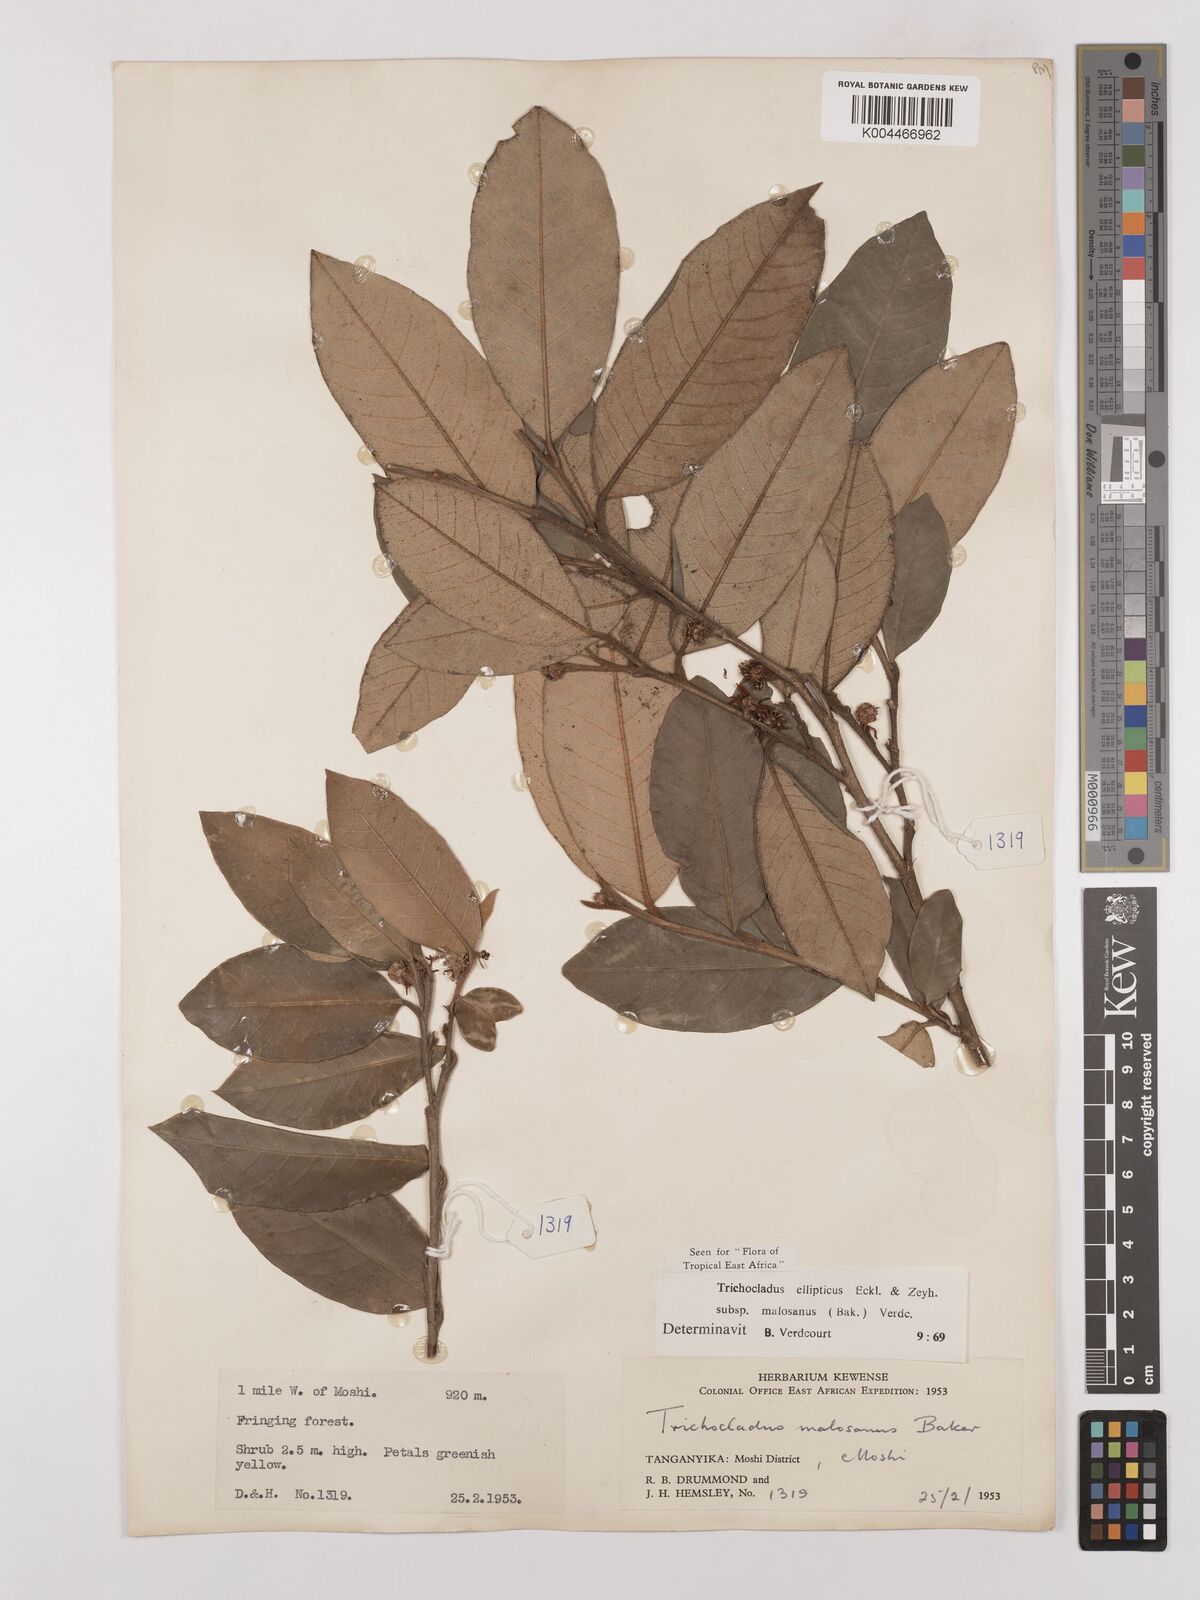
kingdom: Plantae
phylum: Tracheophyta
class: Magnoliopsida
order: Saxifragales
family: Hamamelidaceae
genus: Trichocladus
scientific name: Trichocladus ellipticus
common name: White witch-hazel
